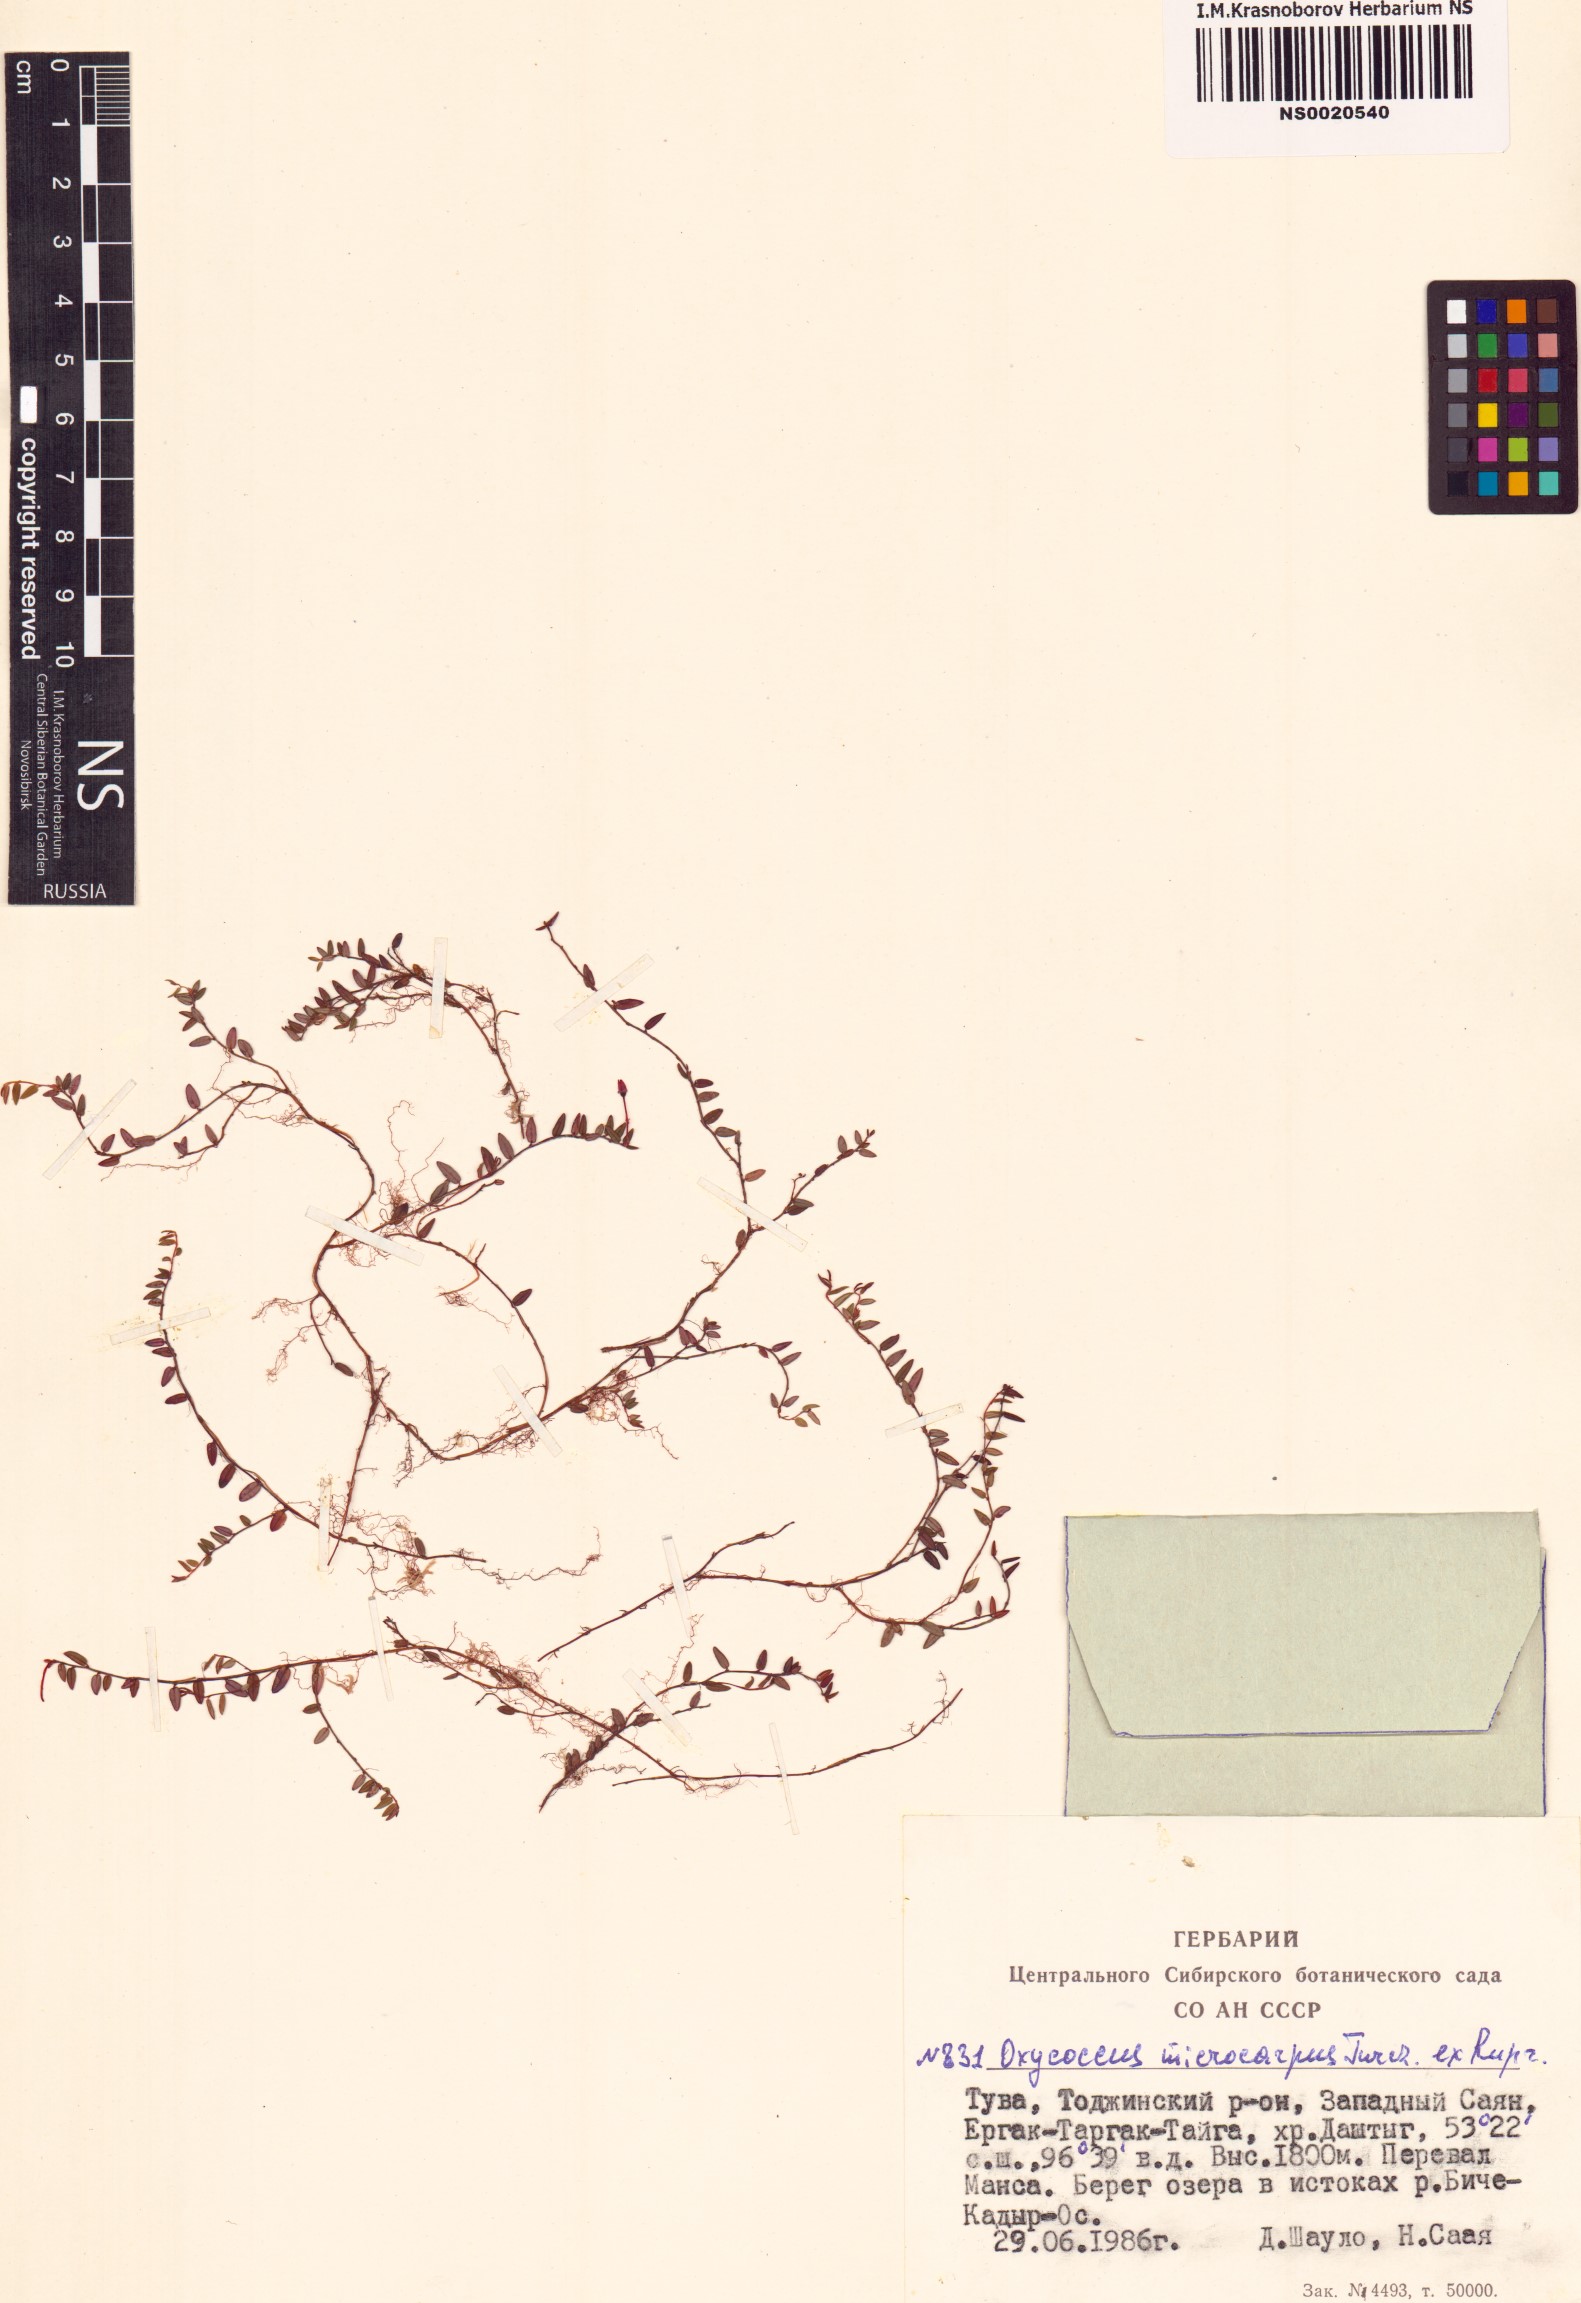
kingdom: Plantae
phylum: Tracheophyta
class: Magnoliopsida
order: Ericales
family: Ericaceae
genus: Vaccinium
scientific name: Vaccinium microcarpum
